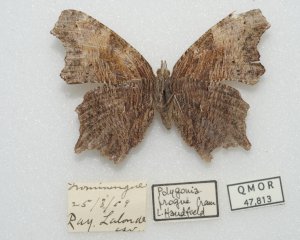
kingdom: Animalia
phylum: Arthropoda
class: Insecta
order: Lepidoptera
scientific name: Lepidoptera
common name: Butterflies
